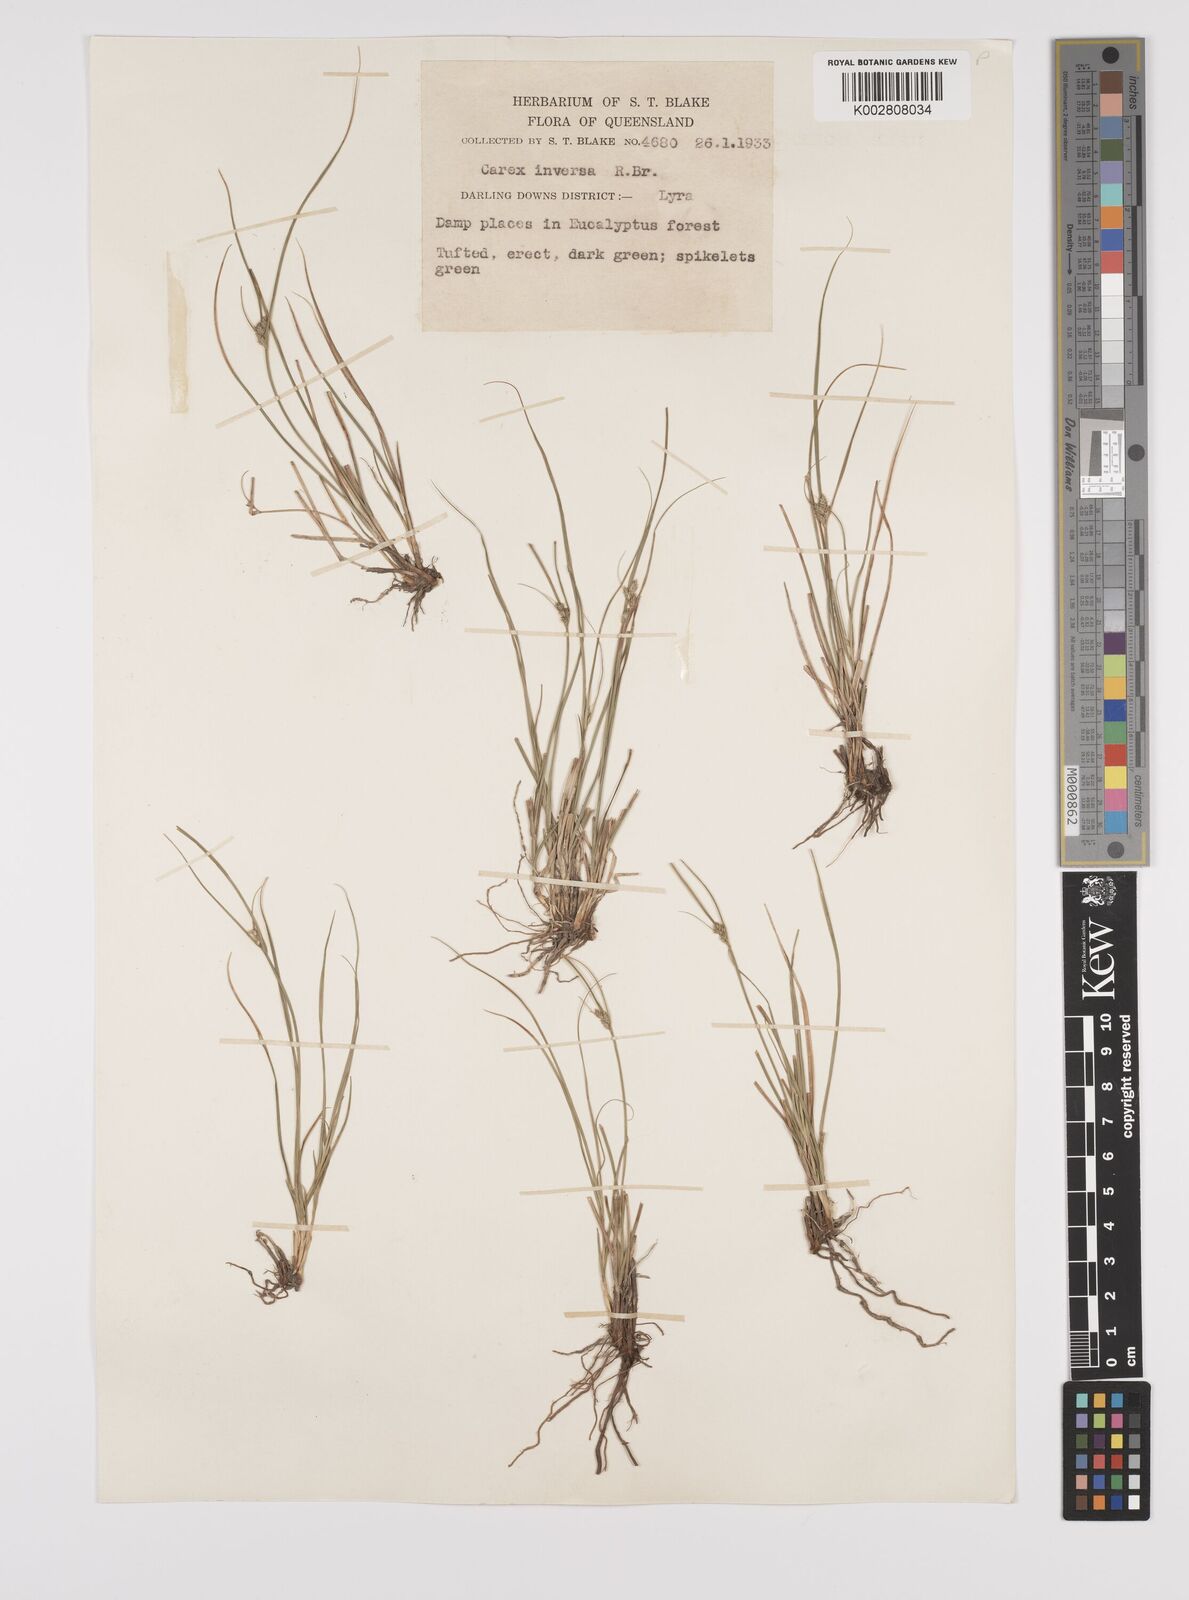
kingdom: Plantae
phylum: Tracheophyta
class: Liliopsida
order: Poales
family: Cyperaceae
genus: Carex
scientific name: Carex inversa
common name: Knob sedge
